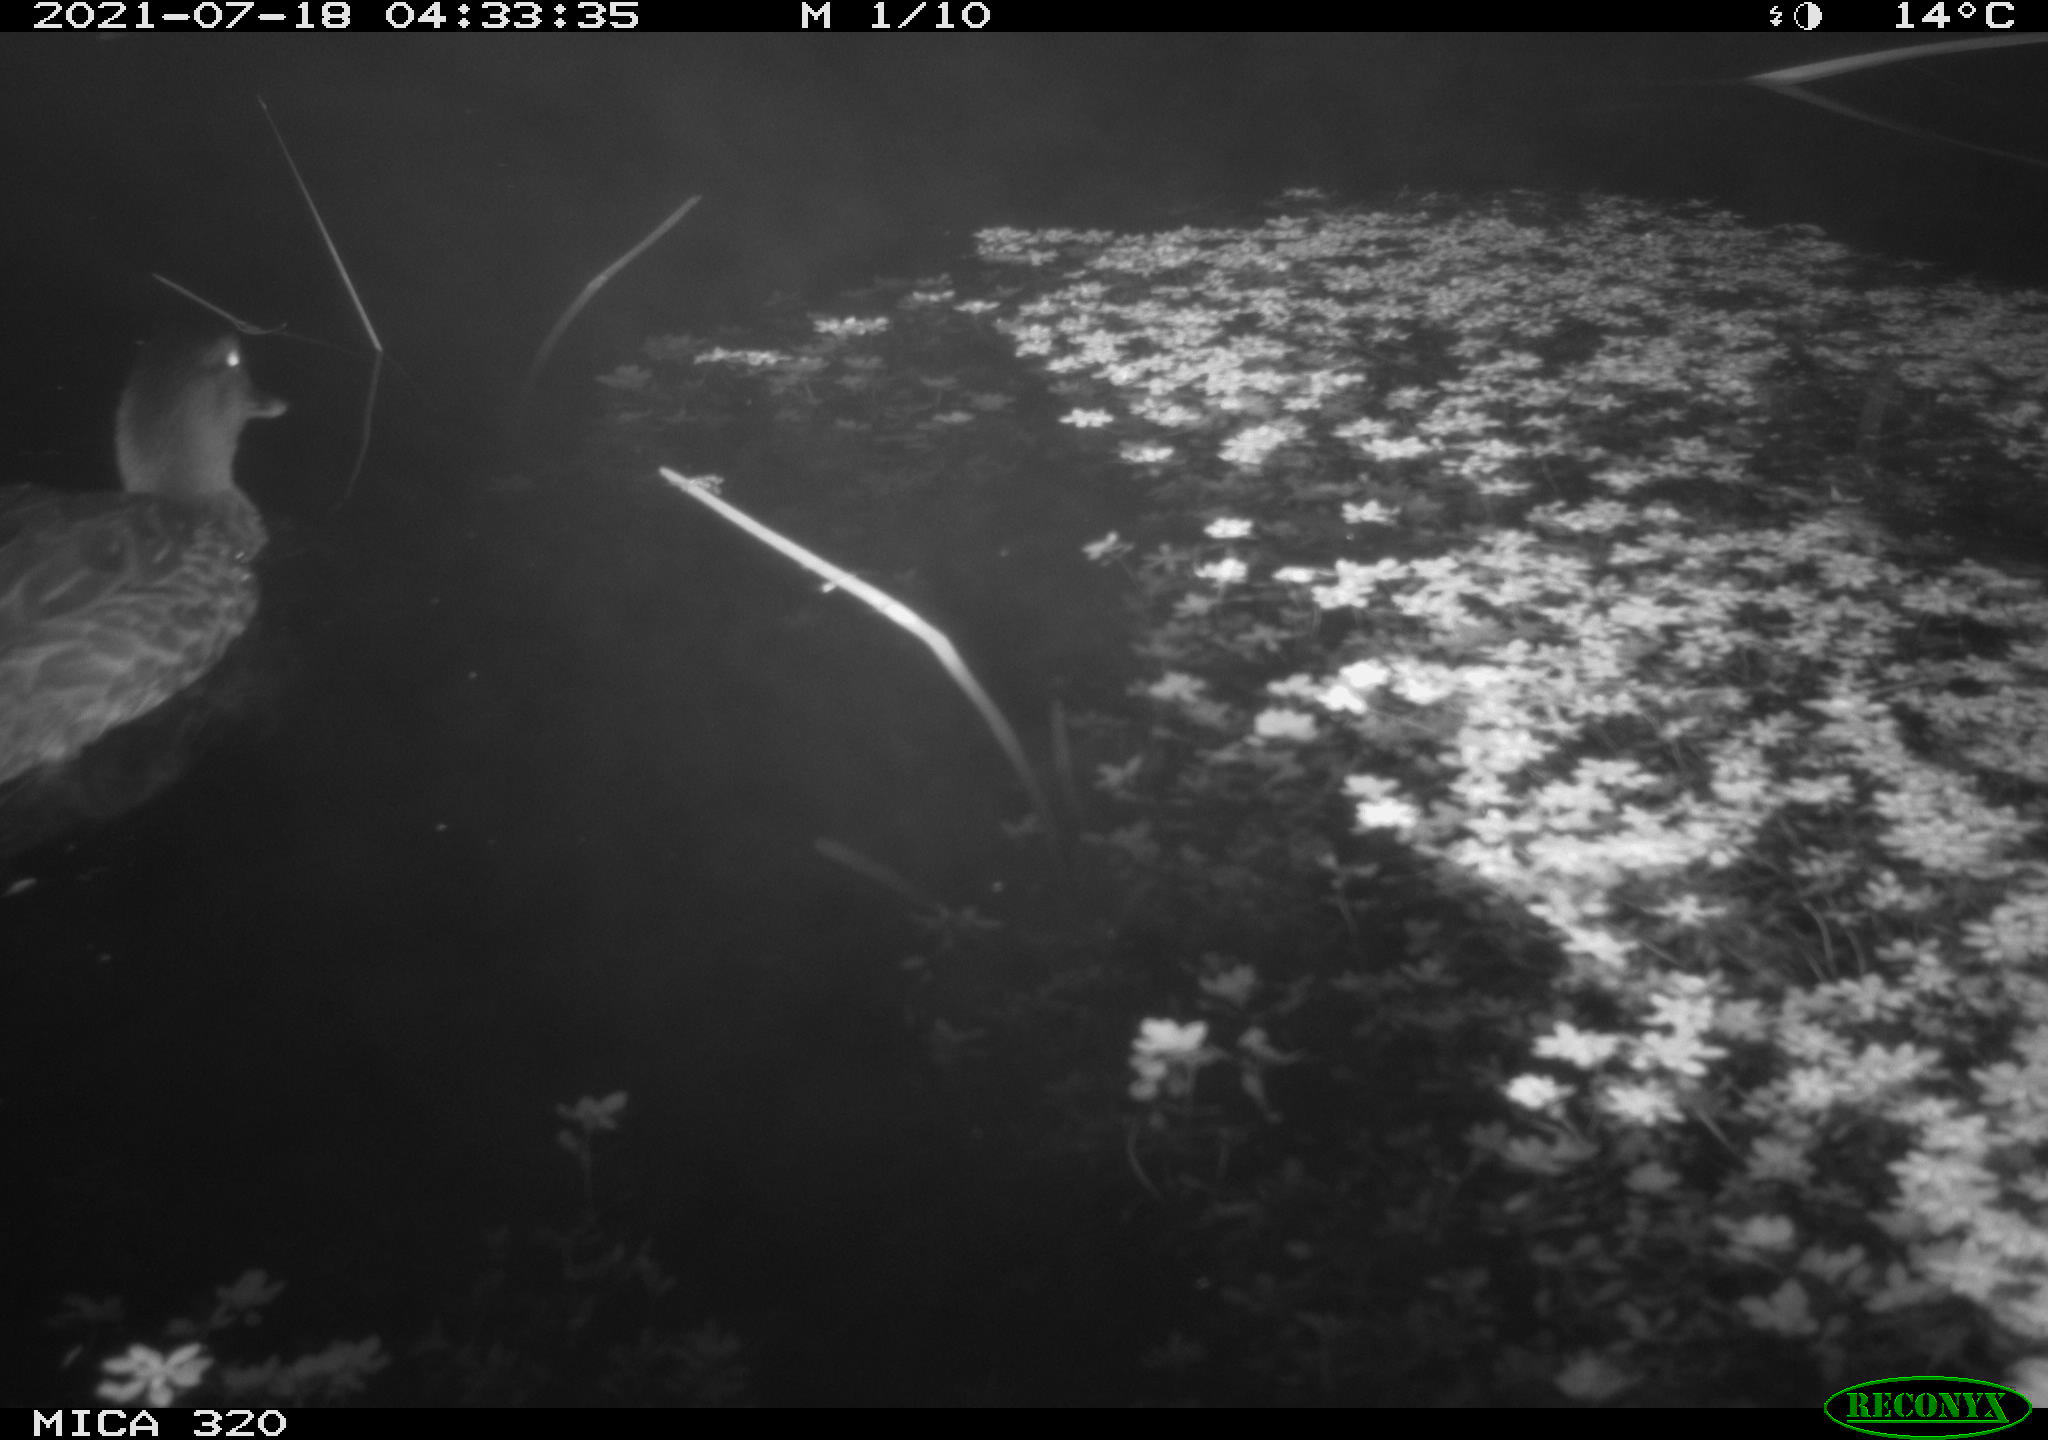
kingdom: Animalia
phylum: Chordata
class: Aves
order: Anseriformes
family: Anatidae
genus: Mareca
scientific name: Mareca strepera
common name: Gadwall
